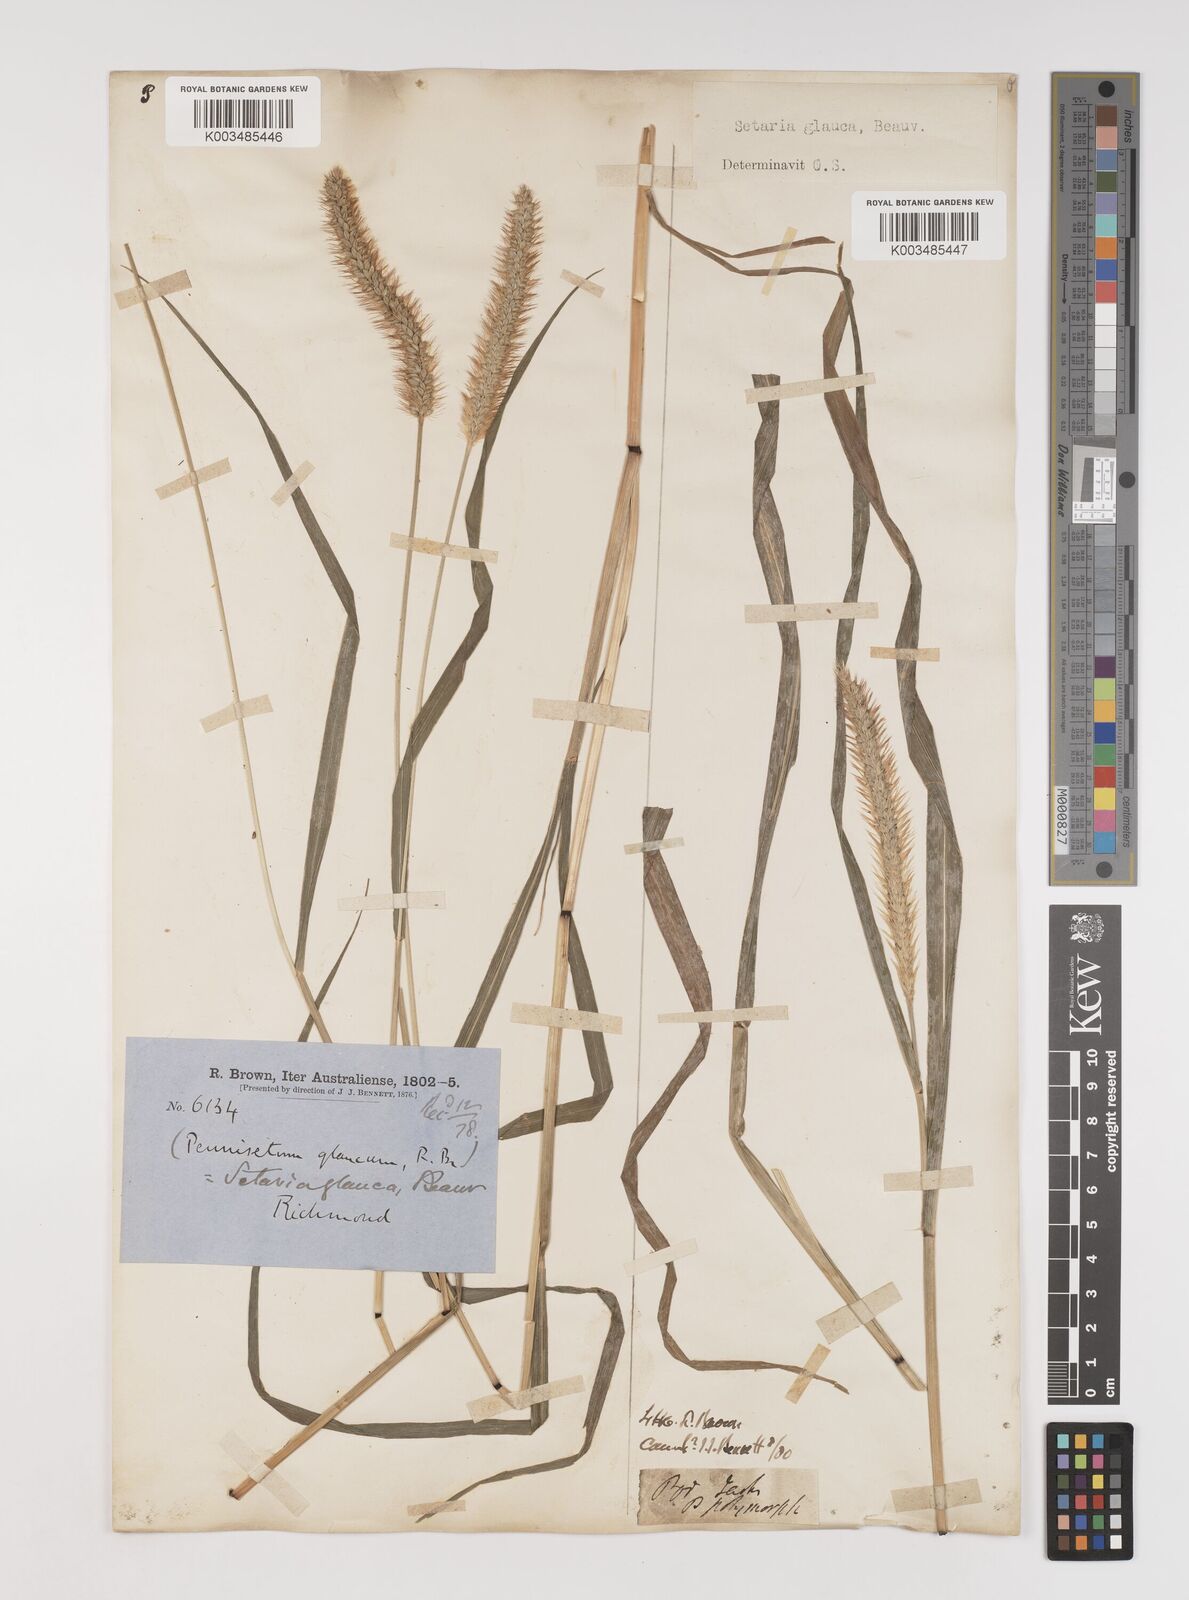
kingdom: Plantae
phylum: Tracheophyta
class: Liliopsida
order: Poales
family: Poaceae
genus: Setaria
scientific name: Setaria pumila
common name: Yellow bristle-grass
